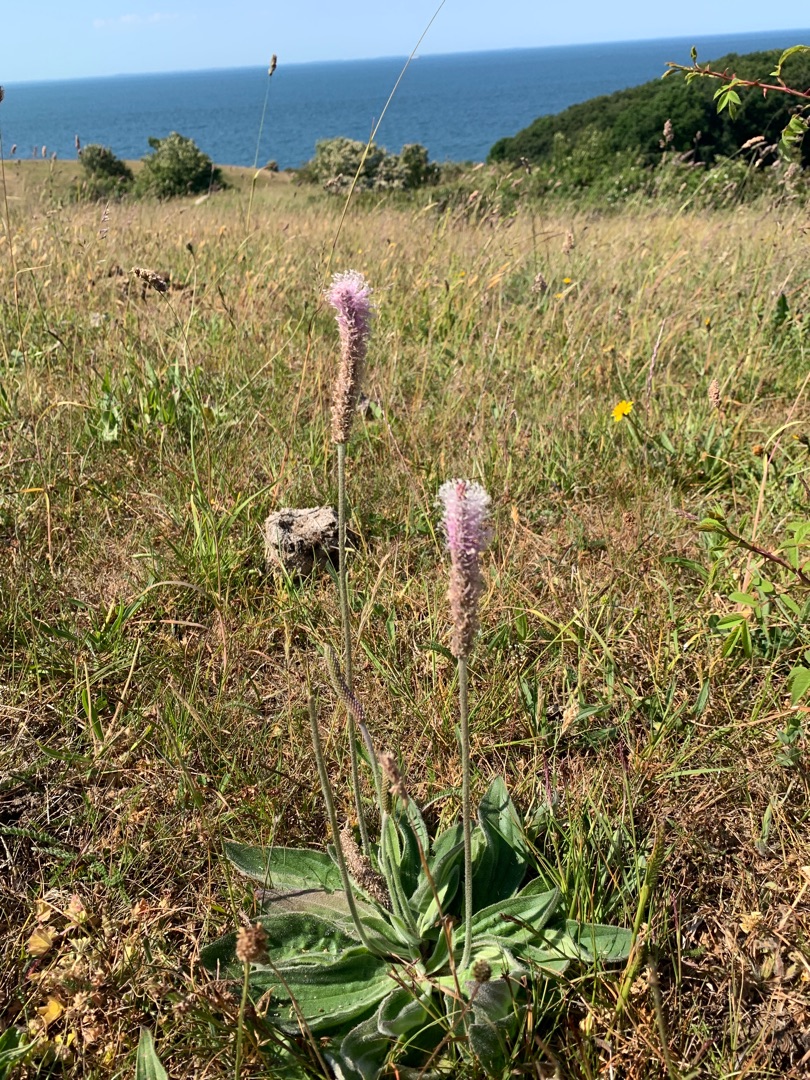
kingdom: Plantae
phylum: Tracheophyta
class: Magnoliopsida
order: Lamiales
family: Plantaginaceae
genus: Plantago
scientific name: Plantago media
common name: Dunet vejbred
